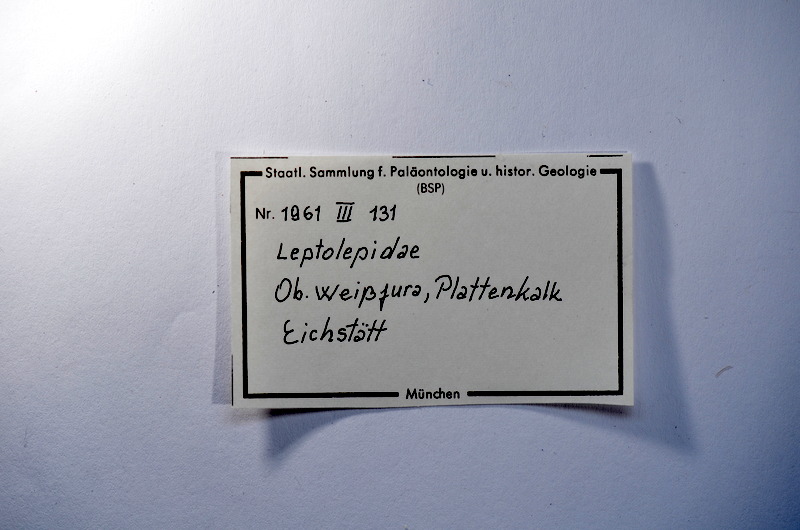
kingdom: Animalia
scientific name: Animalia
